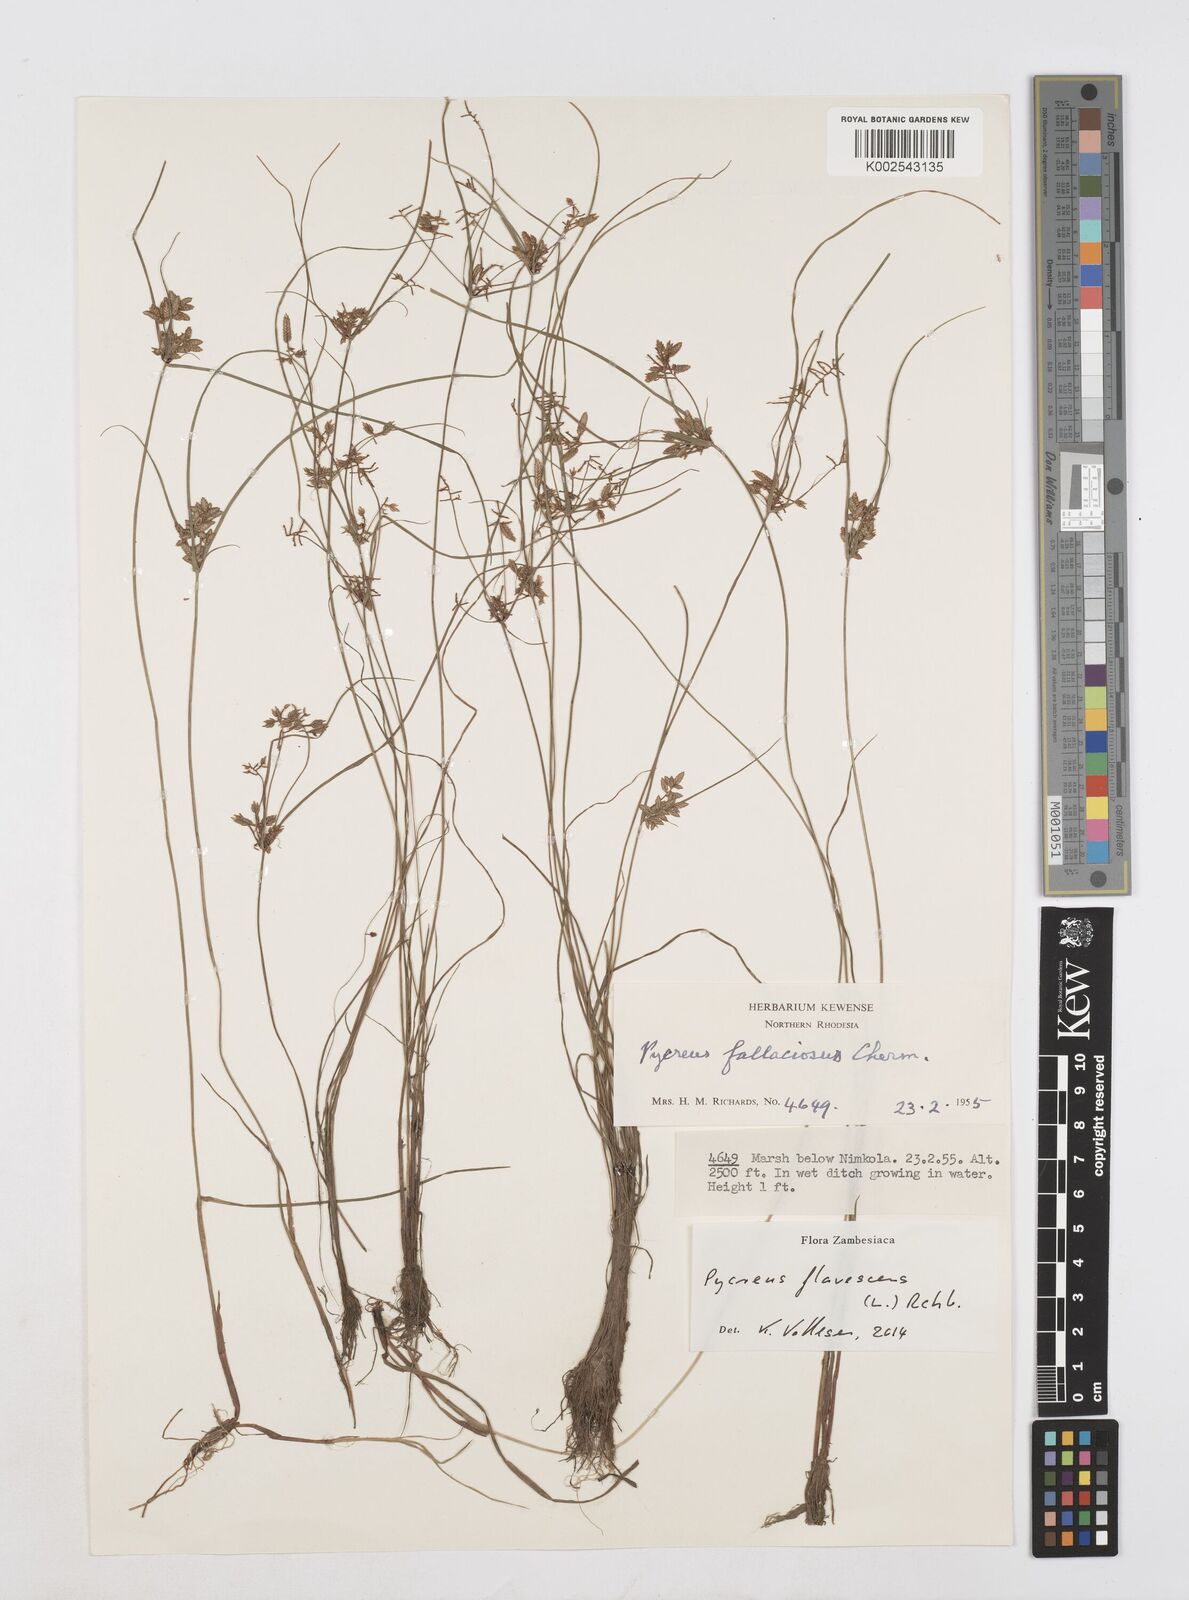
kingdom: Plantae
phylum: Tracheophyta
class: Liliopsida
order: Poales
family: Cyperaceae
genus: Cyperus
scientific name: Cyperus flavescens
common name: Yellow galingale
